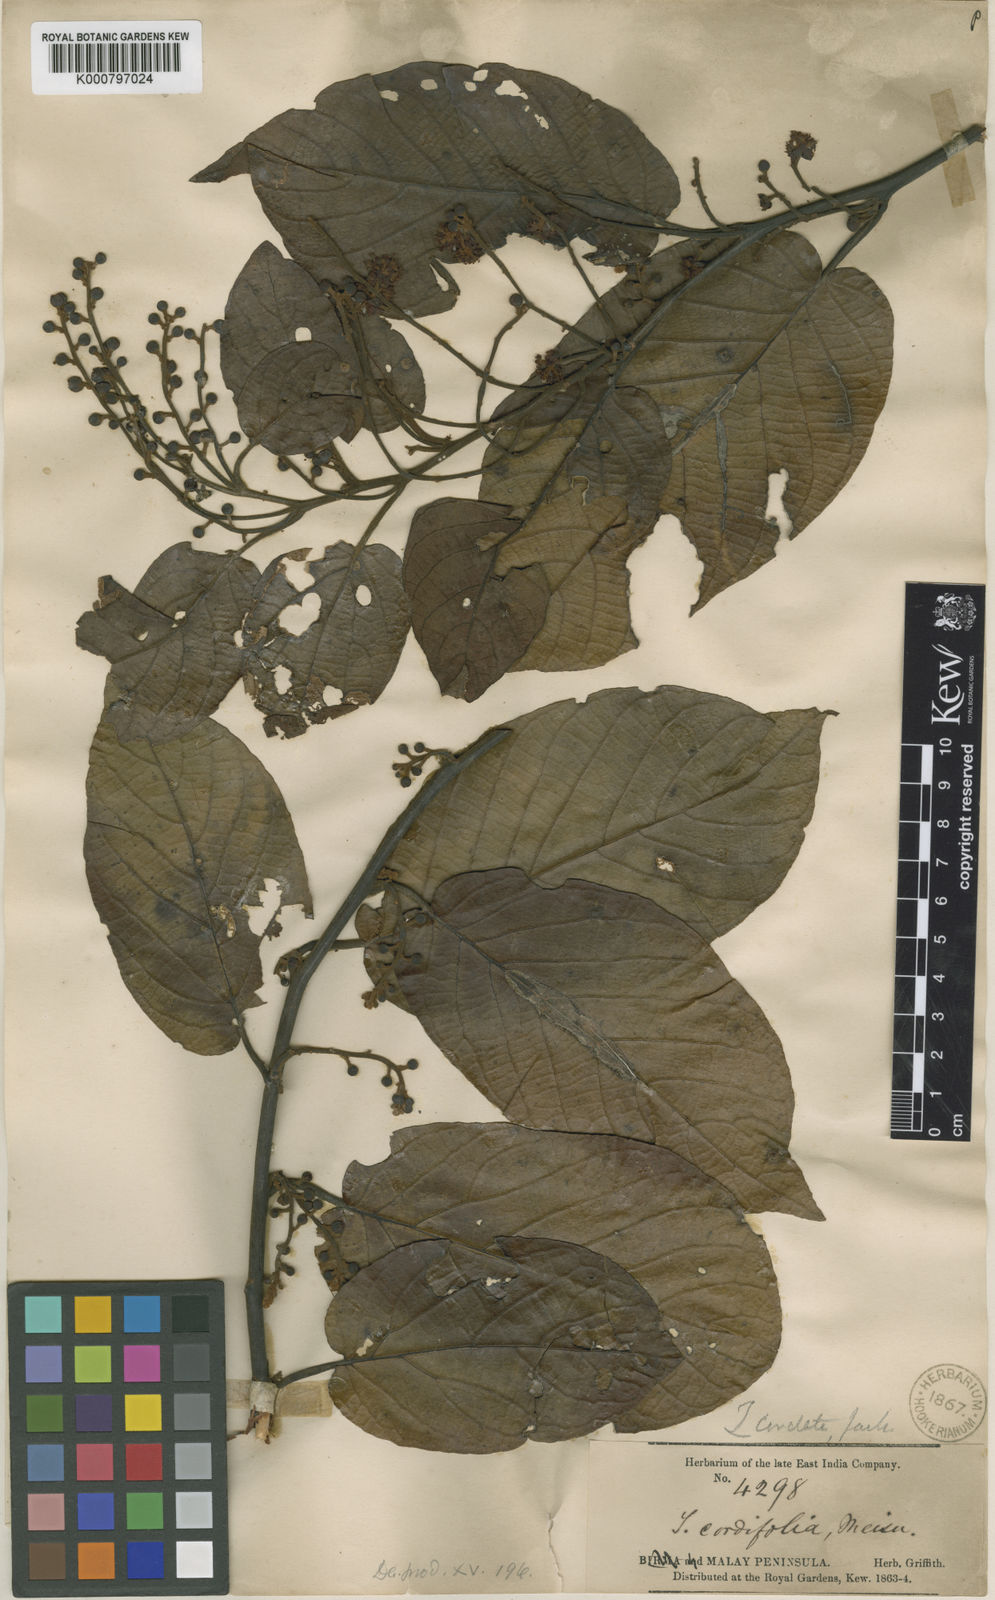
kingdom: Plantae
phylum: Tracheophyta
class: Magnoliopsida
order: Laurales
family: Lauraceae
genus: Litsea
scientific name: Litsea cordata
